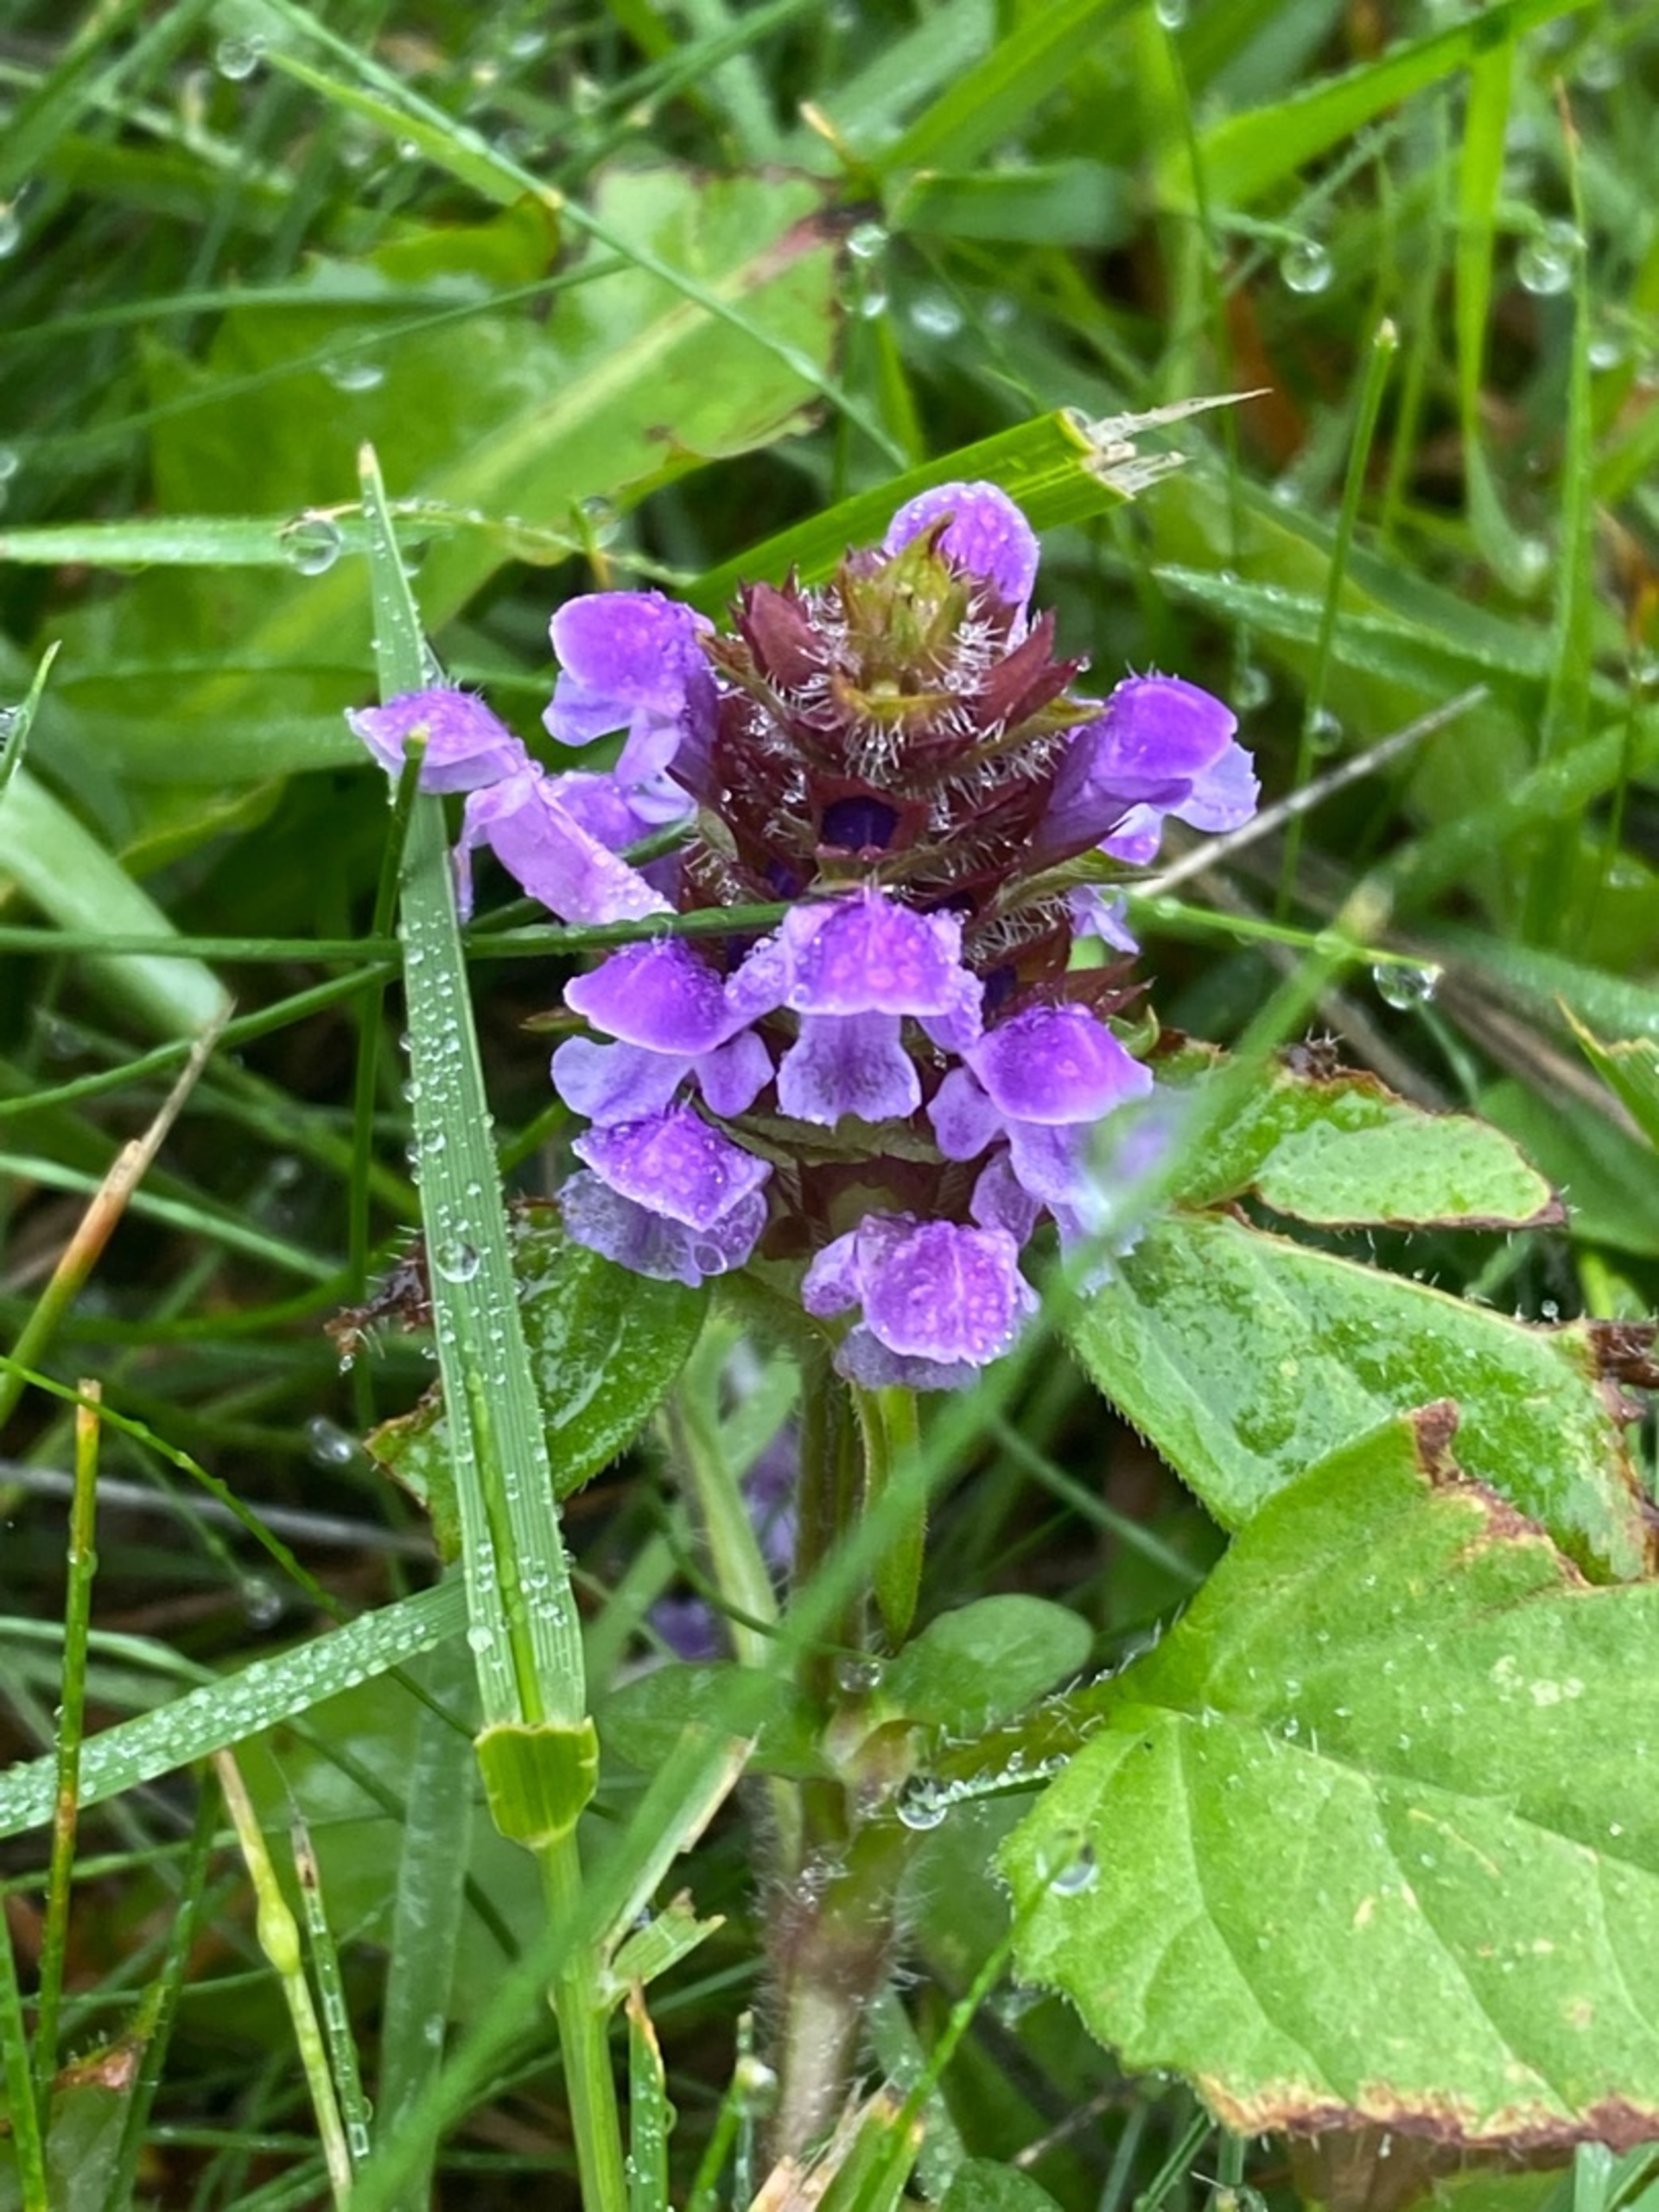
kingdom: Plantae
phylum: Tracheophyta
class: Magnoliopsida
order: Lamiales
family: Lamiaceae
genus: Prunella
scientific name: Prunella vulgaris
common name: Almindelig brunelle
